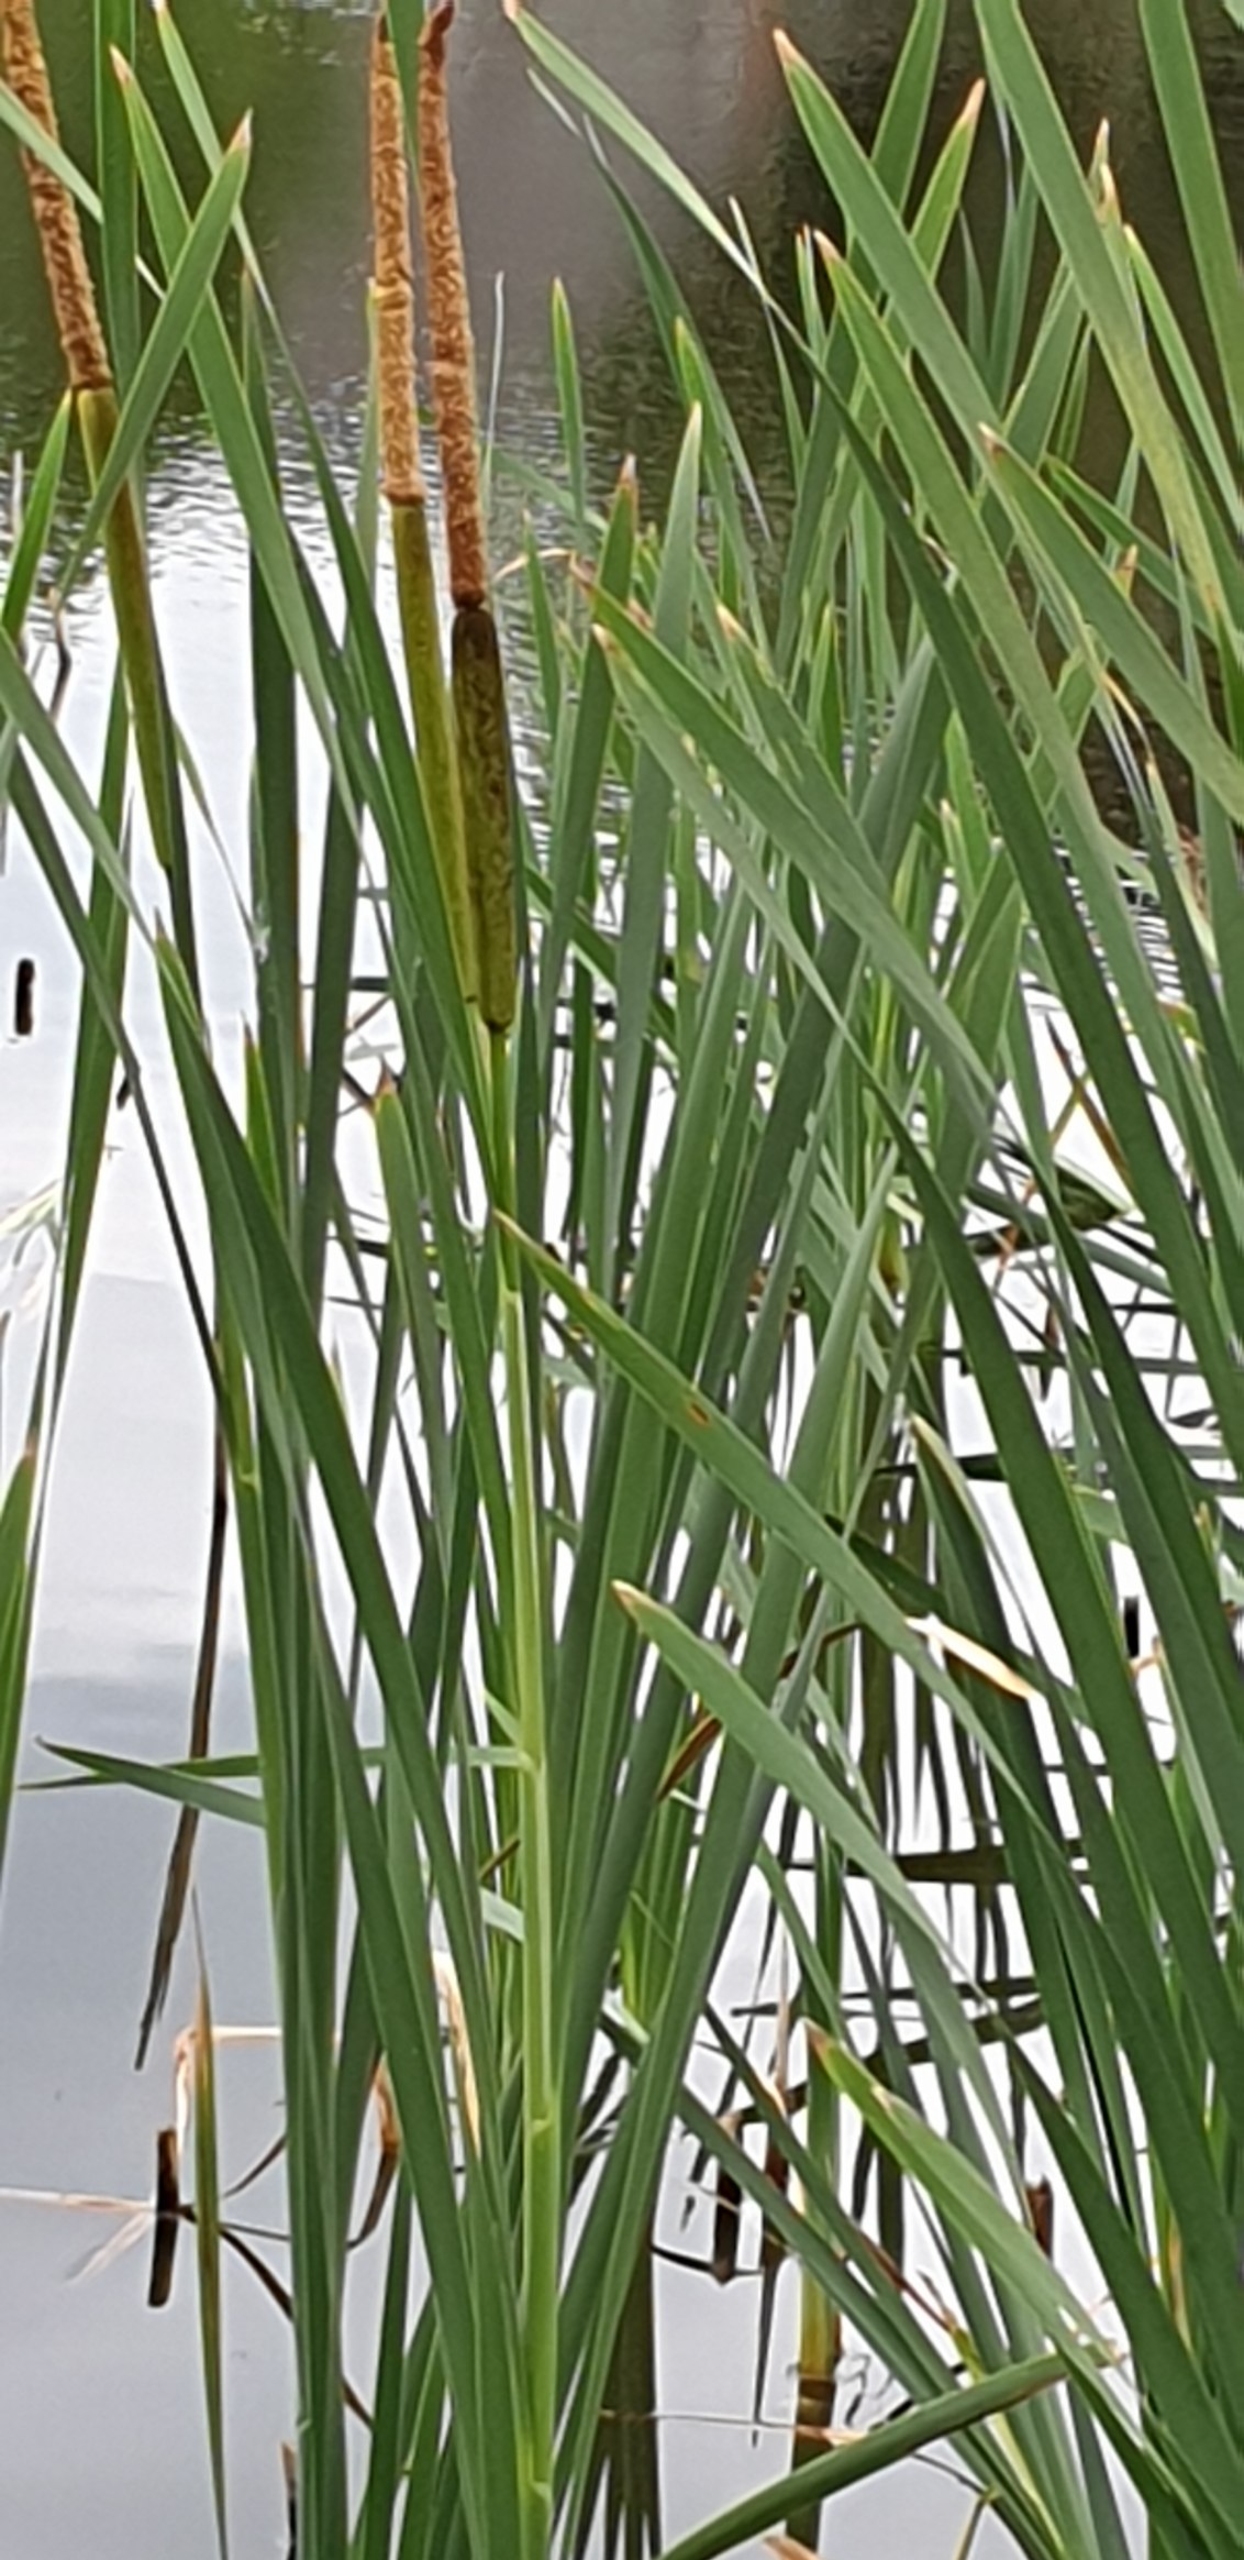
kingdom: Plantae
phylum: Tracheophyta
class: Liliopsida
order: Poales
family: Typhaceae
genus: Typha
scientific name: Typha latifolia
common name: Bredbladet dunhammer
